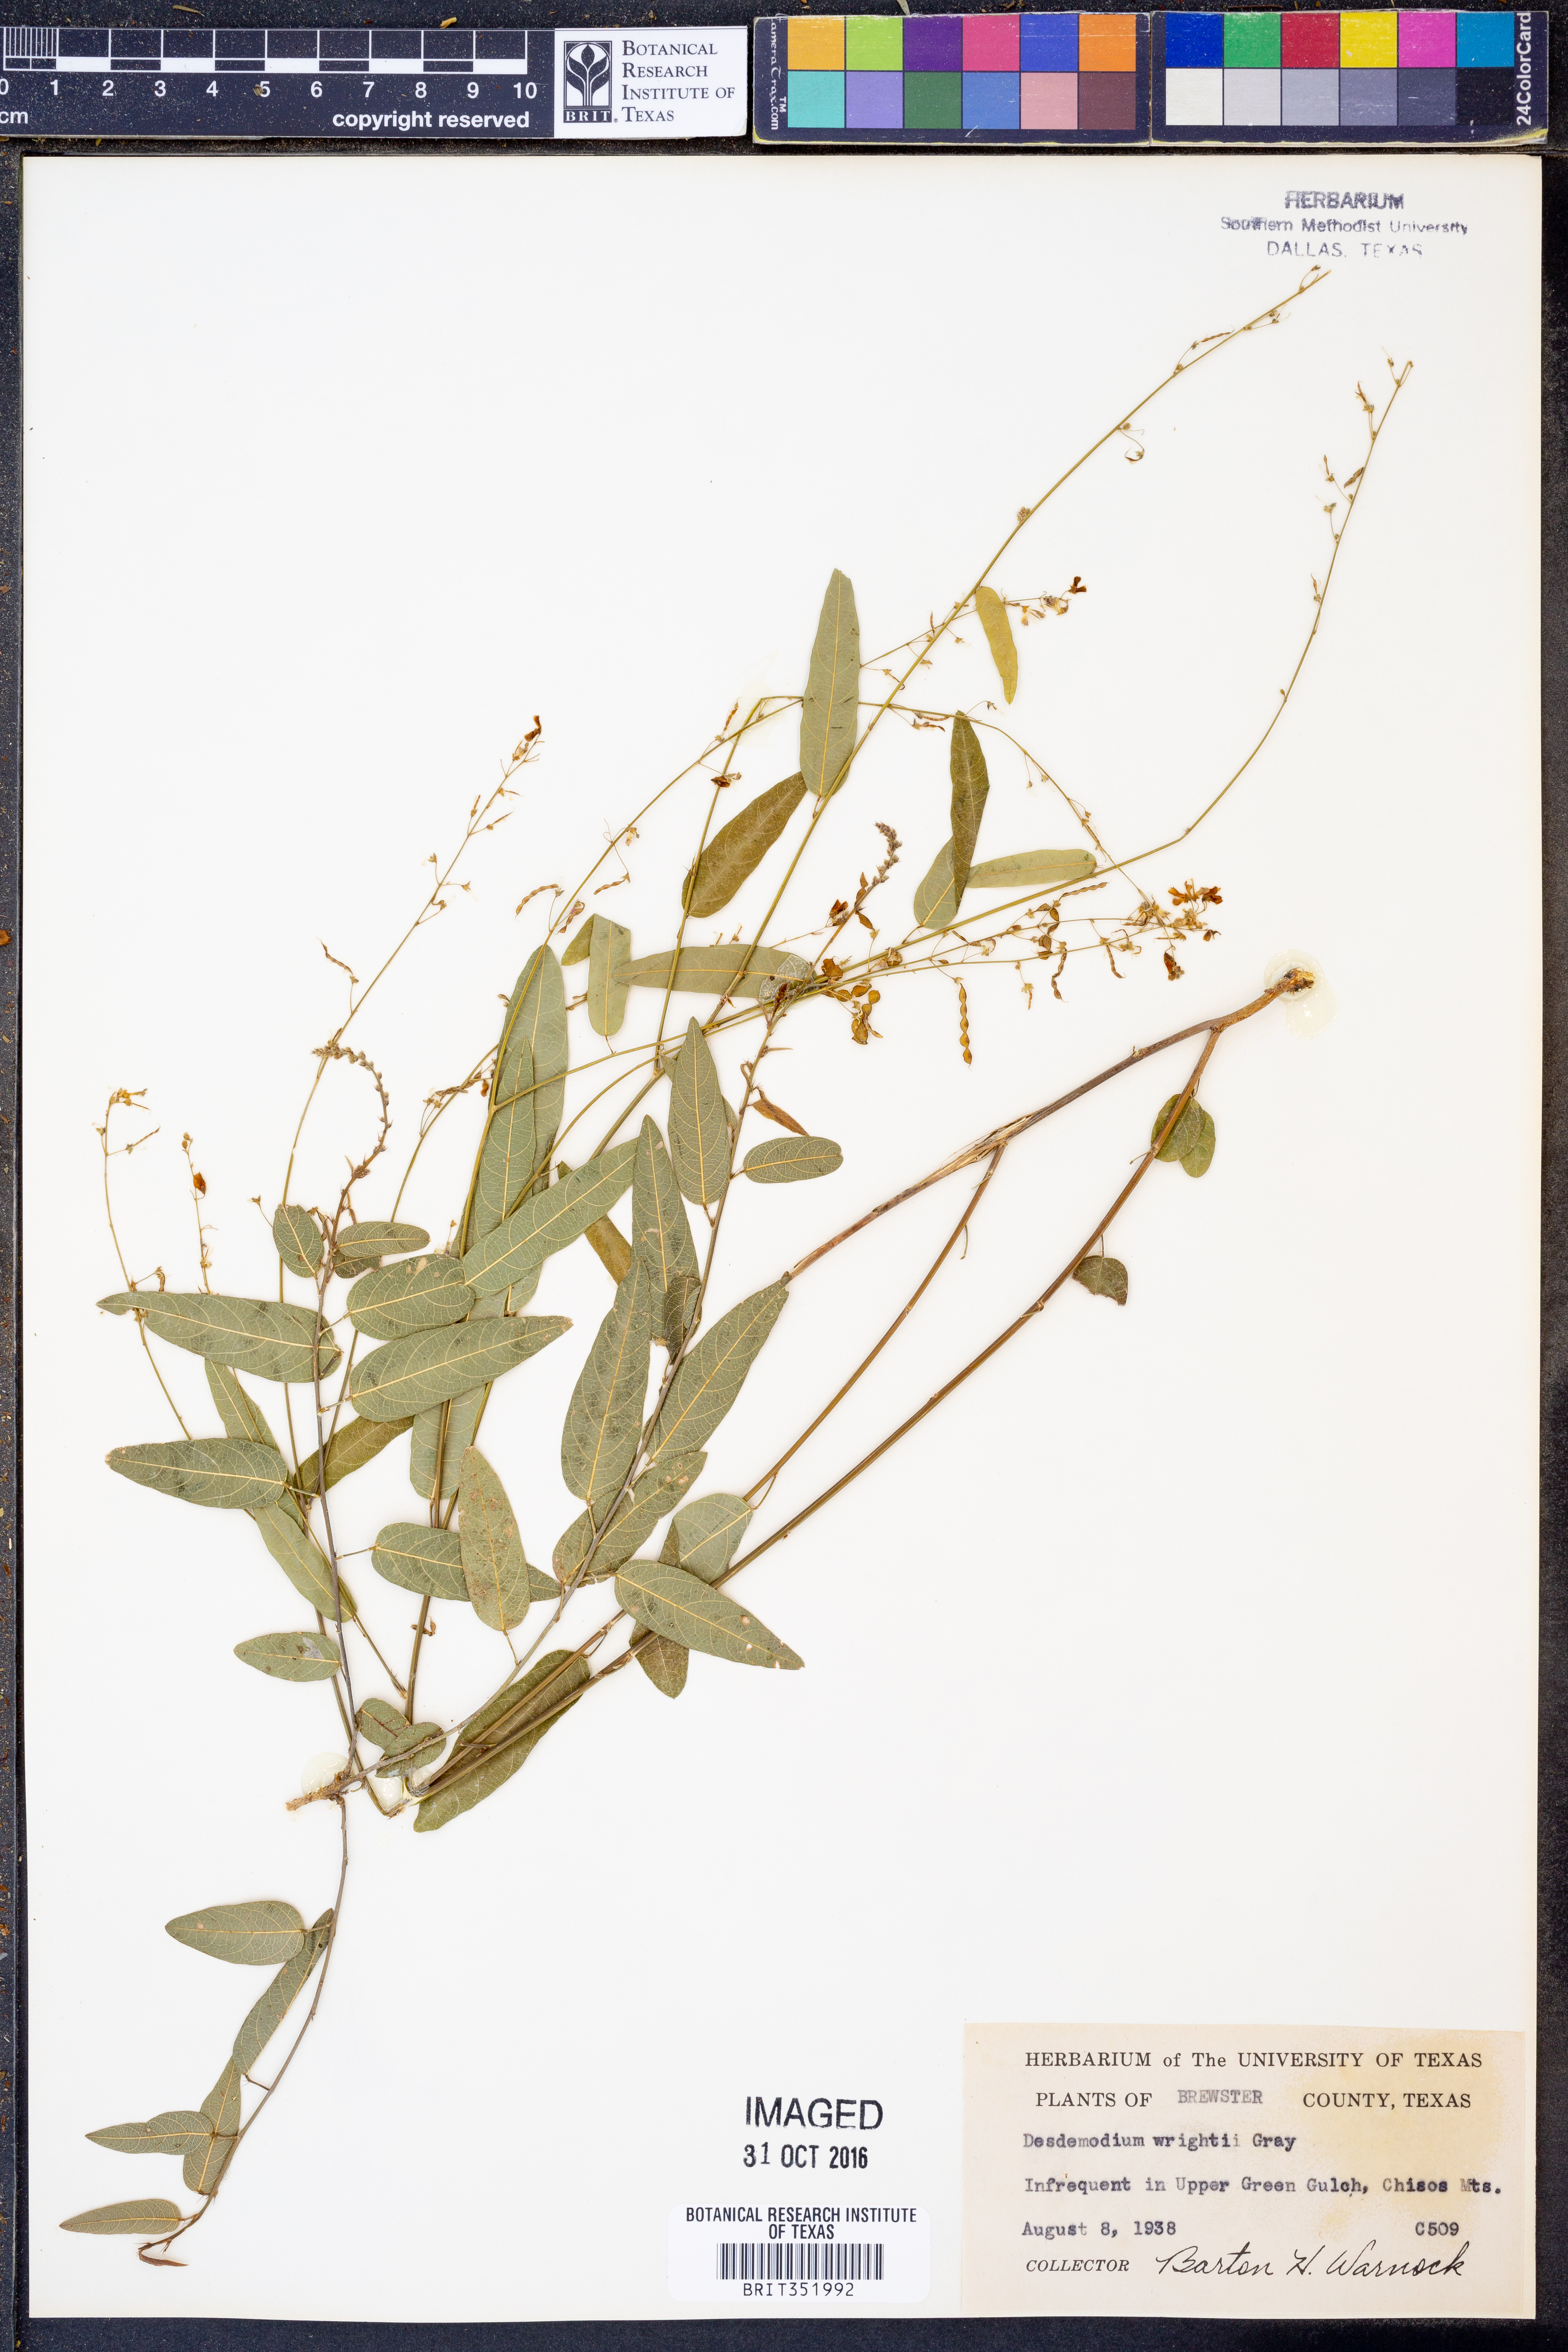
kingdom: Plantae
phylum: Tracheophyta
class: Magnoliopsida
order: Fabales
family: Fabaceae
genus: Desmodium
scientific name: Desmodium psilophyllum
